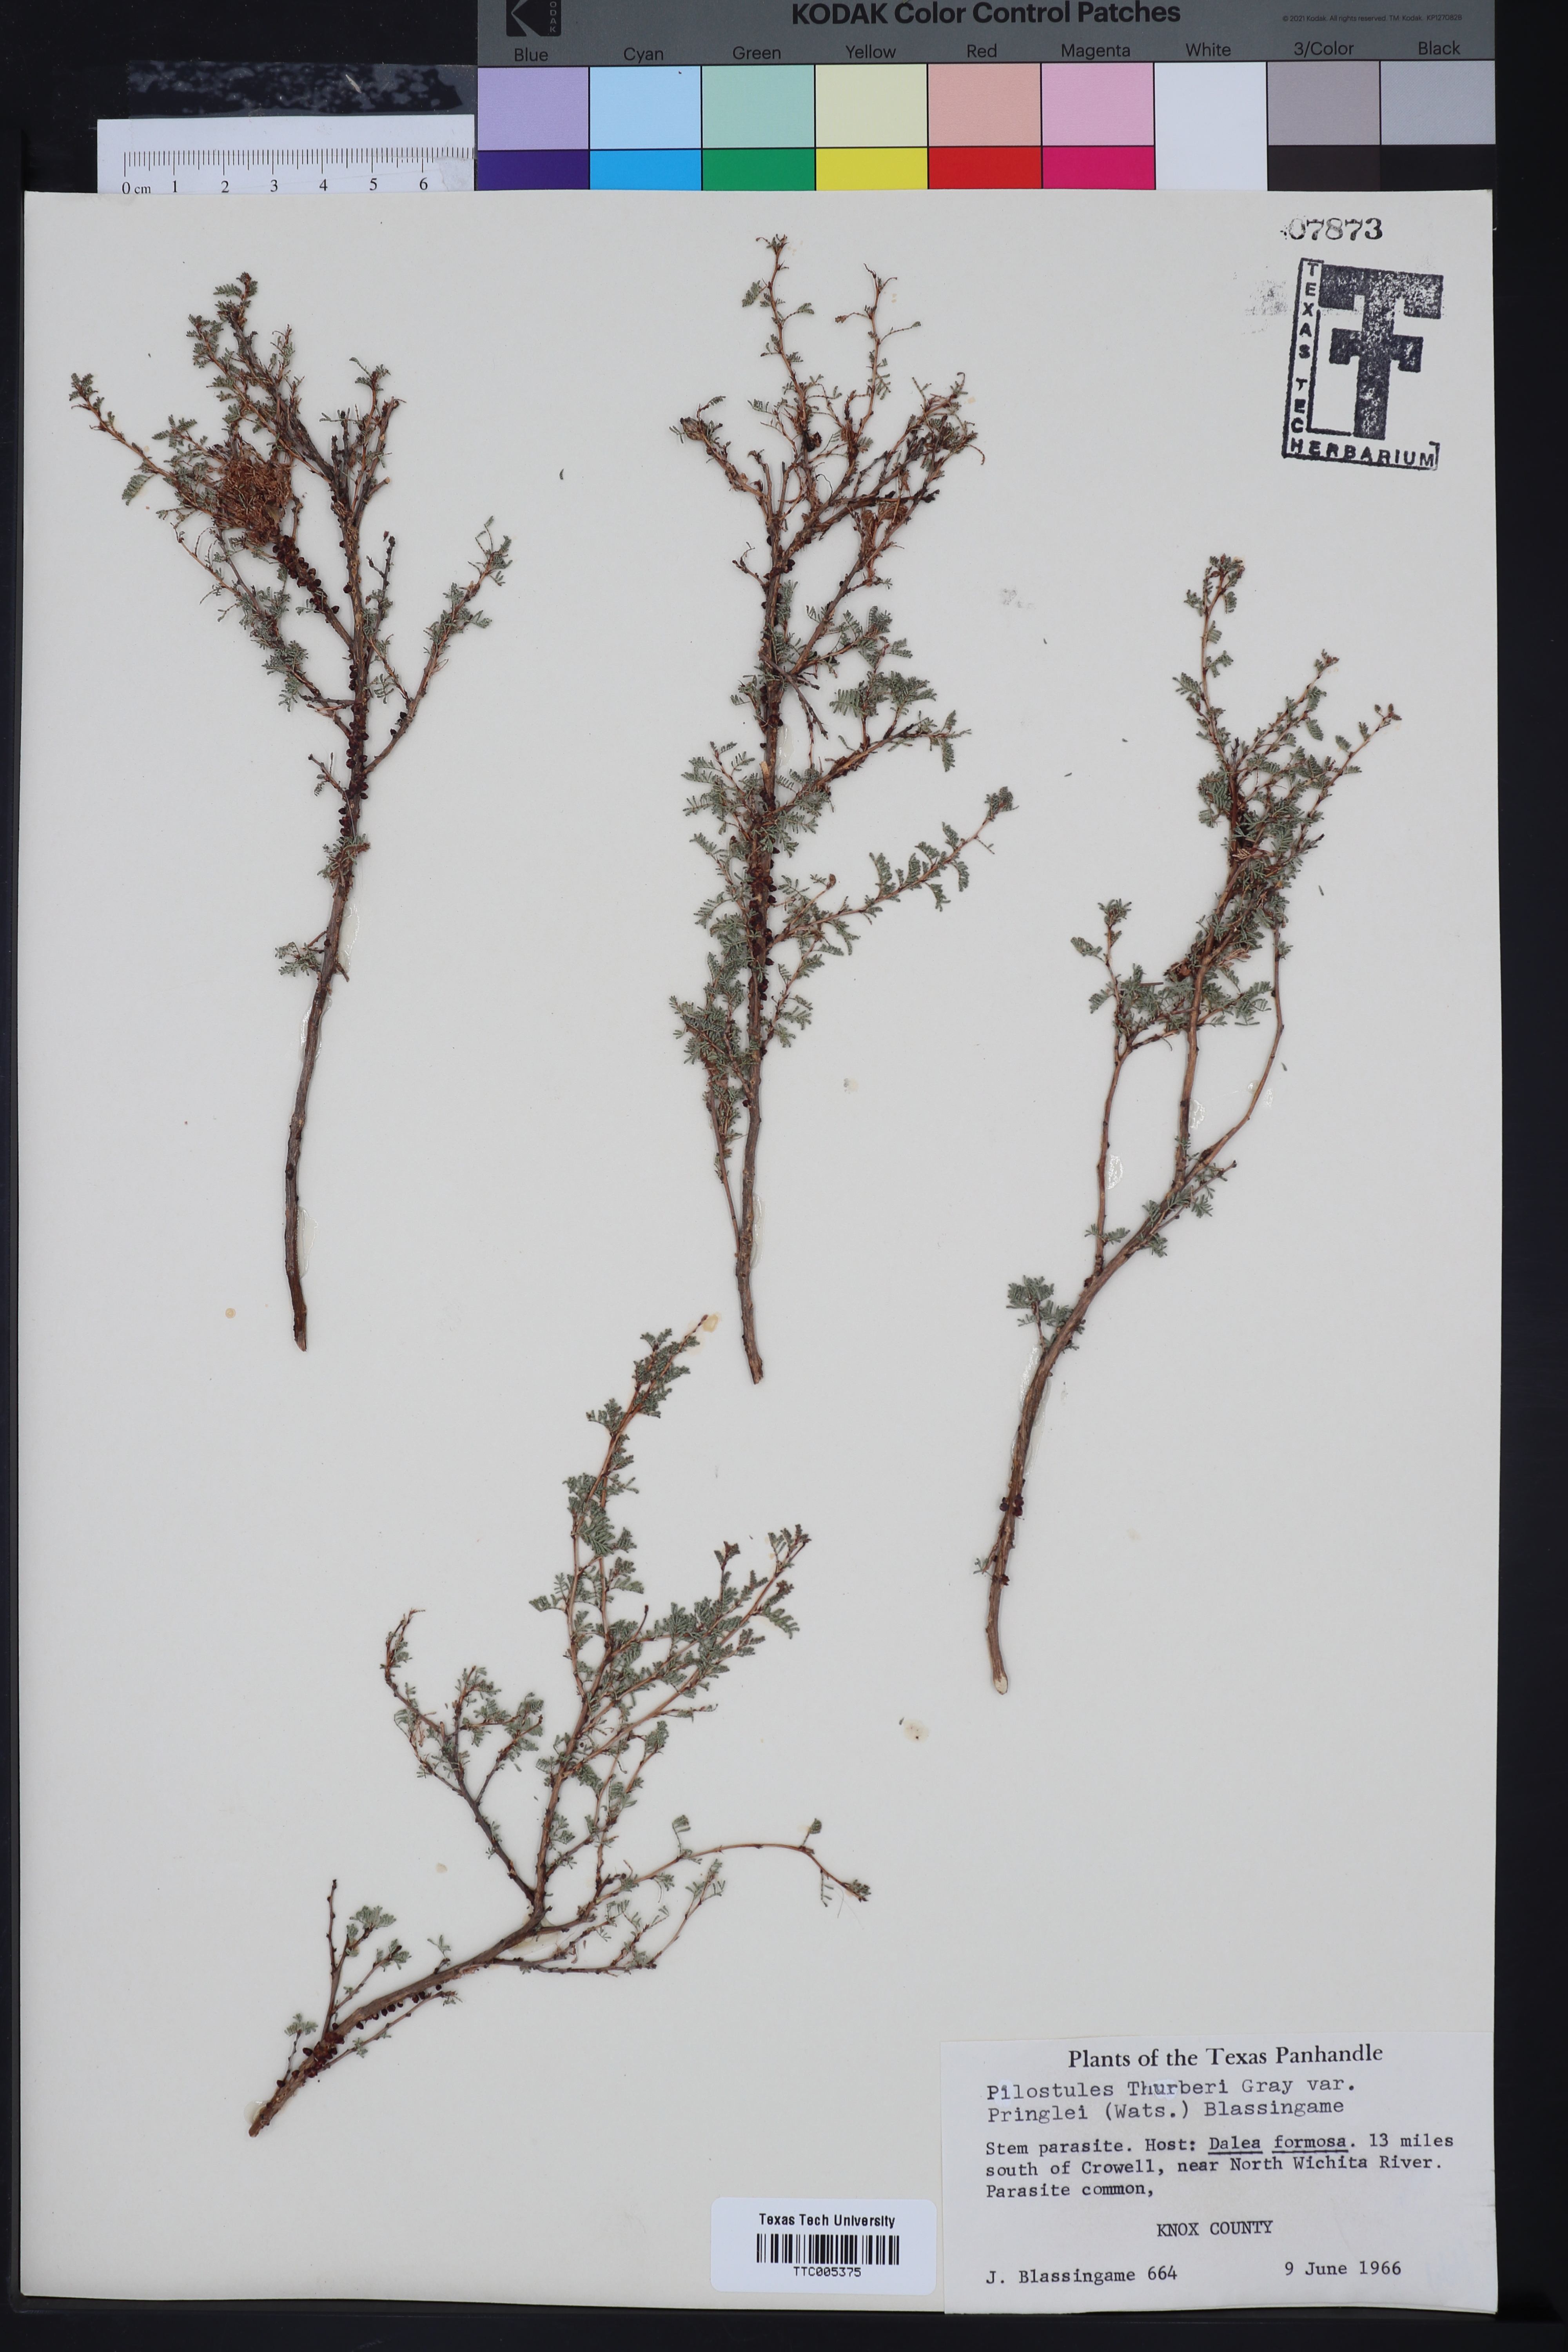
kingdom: Plantae
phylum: Tracheophyta
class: Magnoliopsida
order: Cucurbitales
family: Apodanthaceae
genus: Pilostyles
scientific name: Pilostyles
